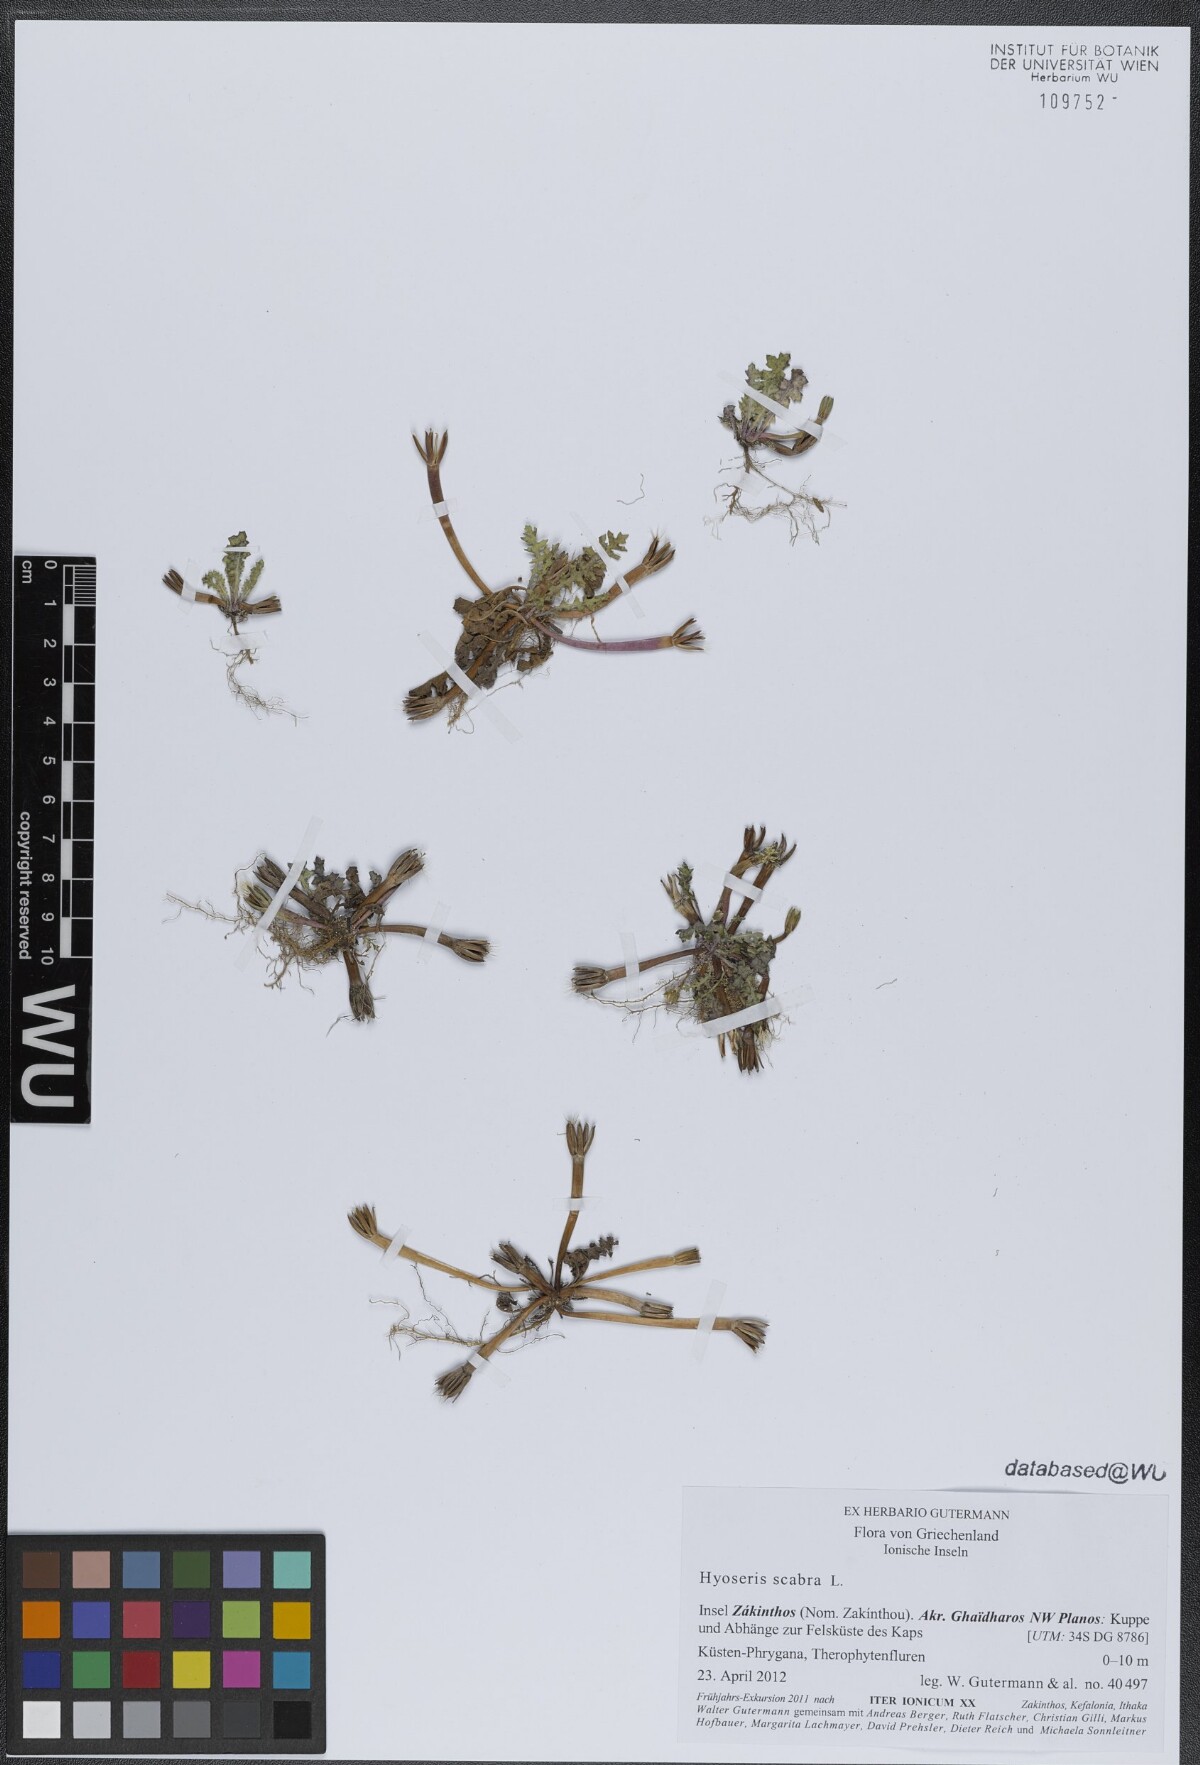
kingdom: Plantae
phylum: Tracheophyta
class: Magnoliopsida
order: Asterales
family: Asteraceae
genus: Hyoseris
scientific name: Hyoseris scabra
